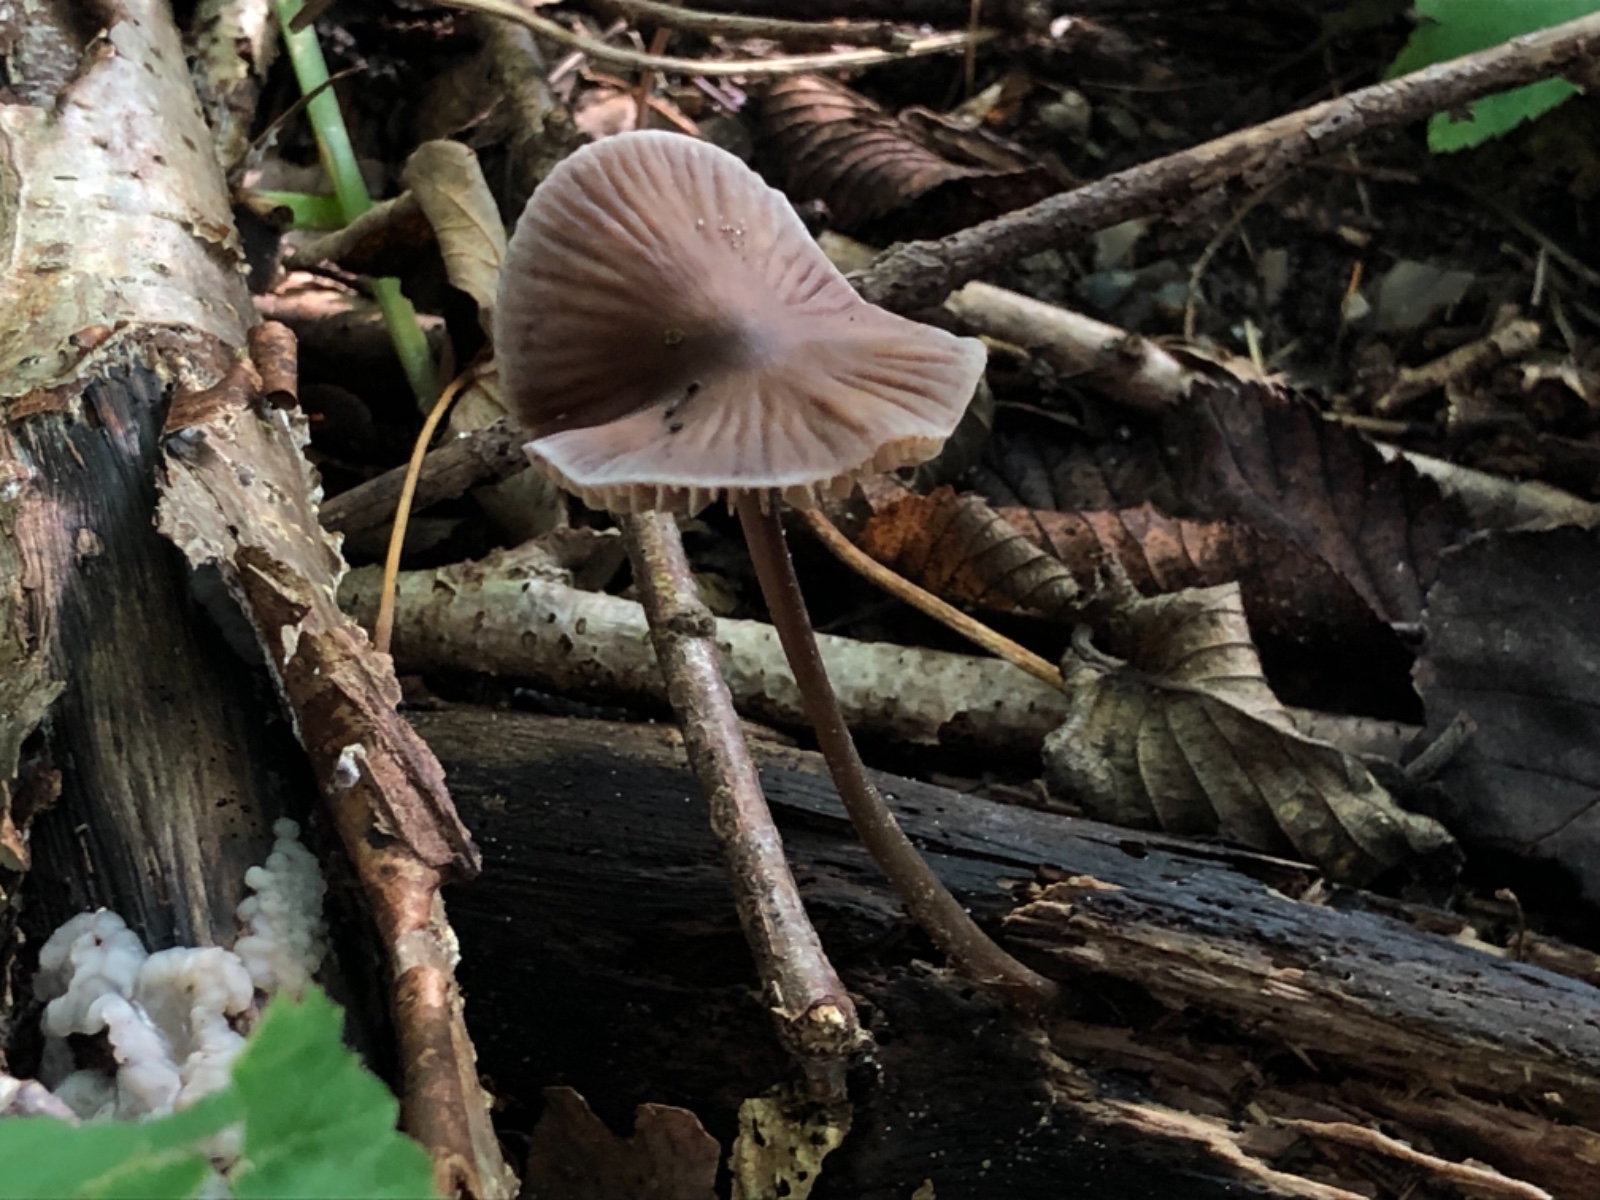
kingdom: Fungi
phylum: Basidiomycota
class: Agaricomycetes
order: Agaricales
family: Mycenaceae
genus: Mycena
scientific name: Mycena polygramma
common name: mangestribet huesvamp
